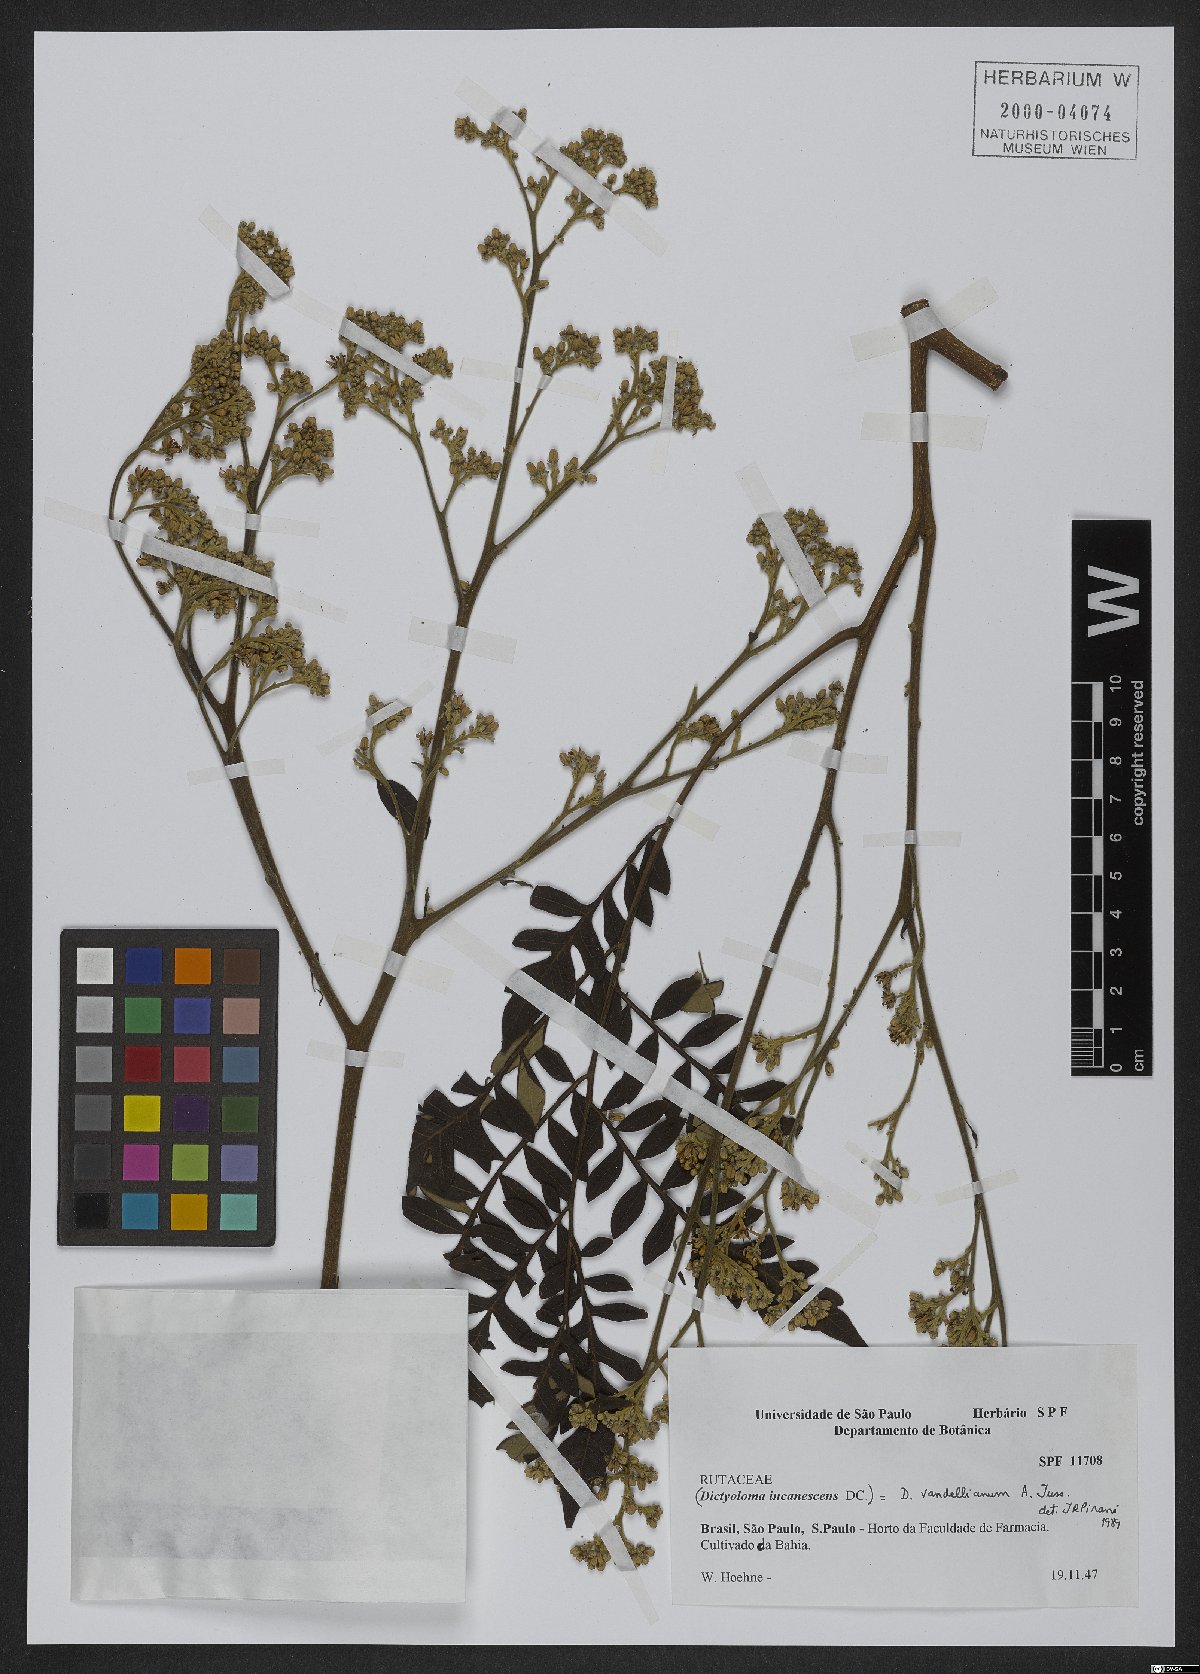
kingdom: Plantae
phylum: Tracheophyta
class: Magnoliopsida
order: Sapindales
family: Rutaceae
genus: Dictyoloma
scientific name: Dictyoloma vandellianum
